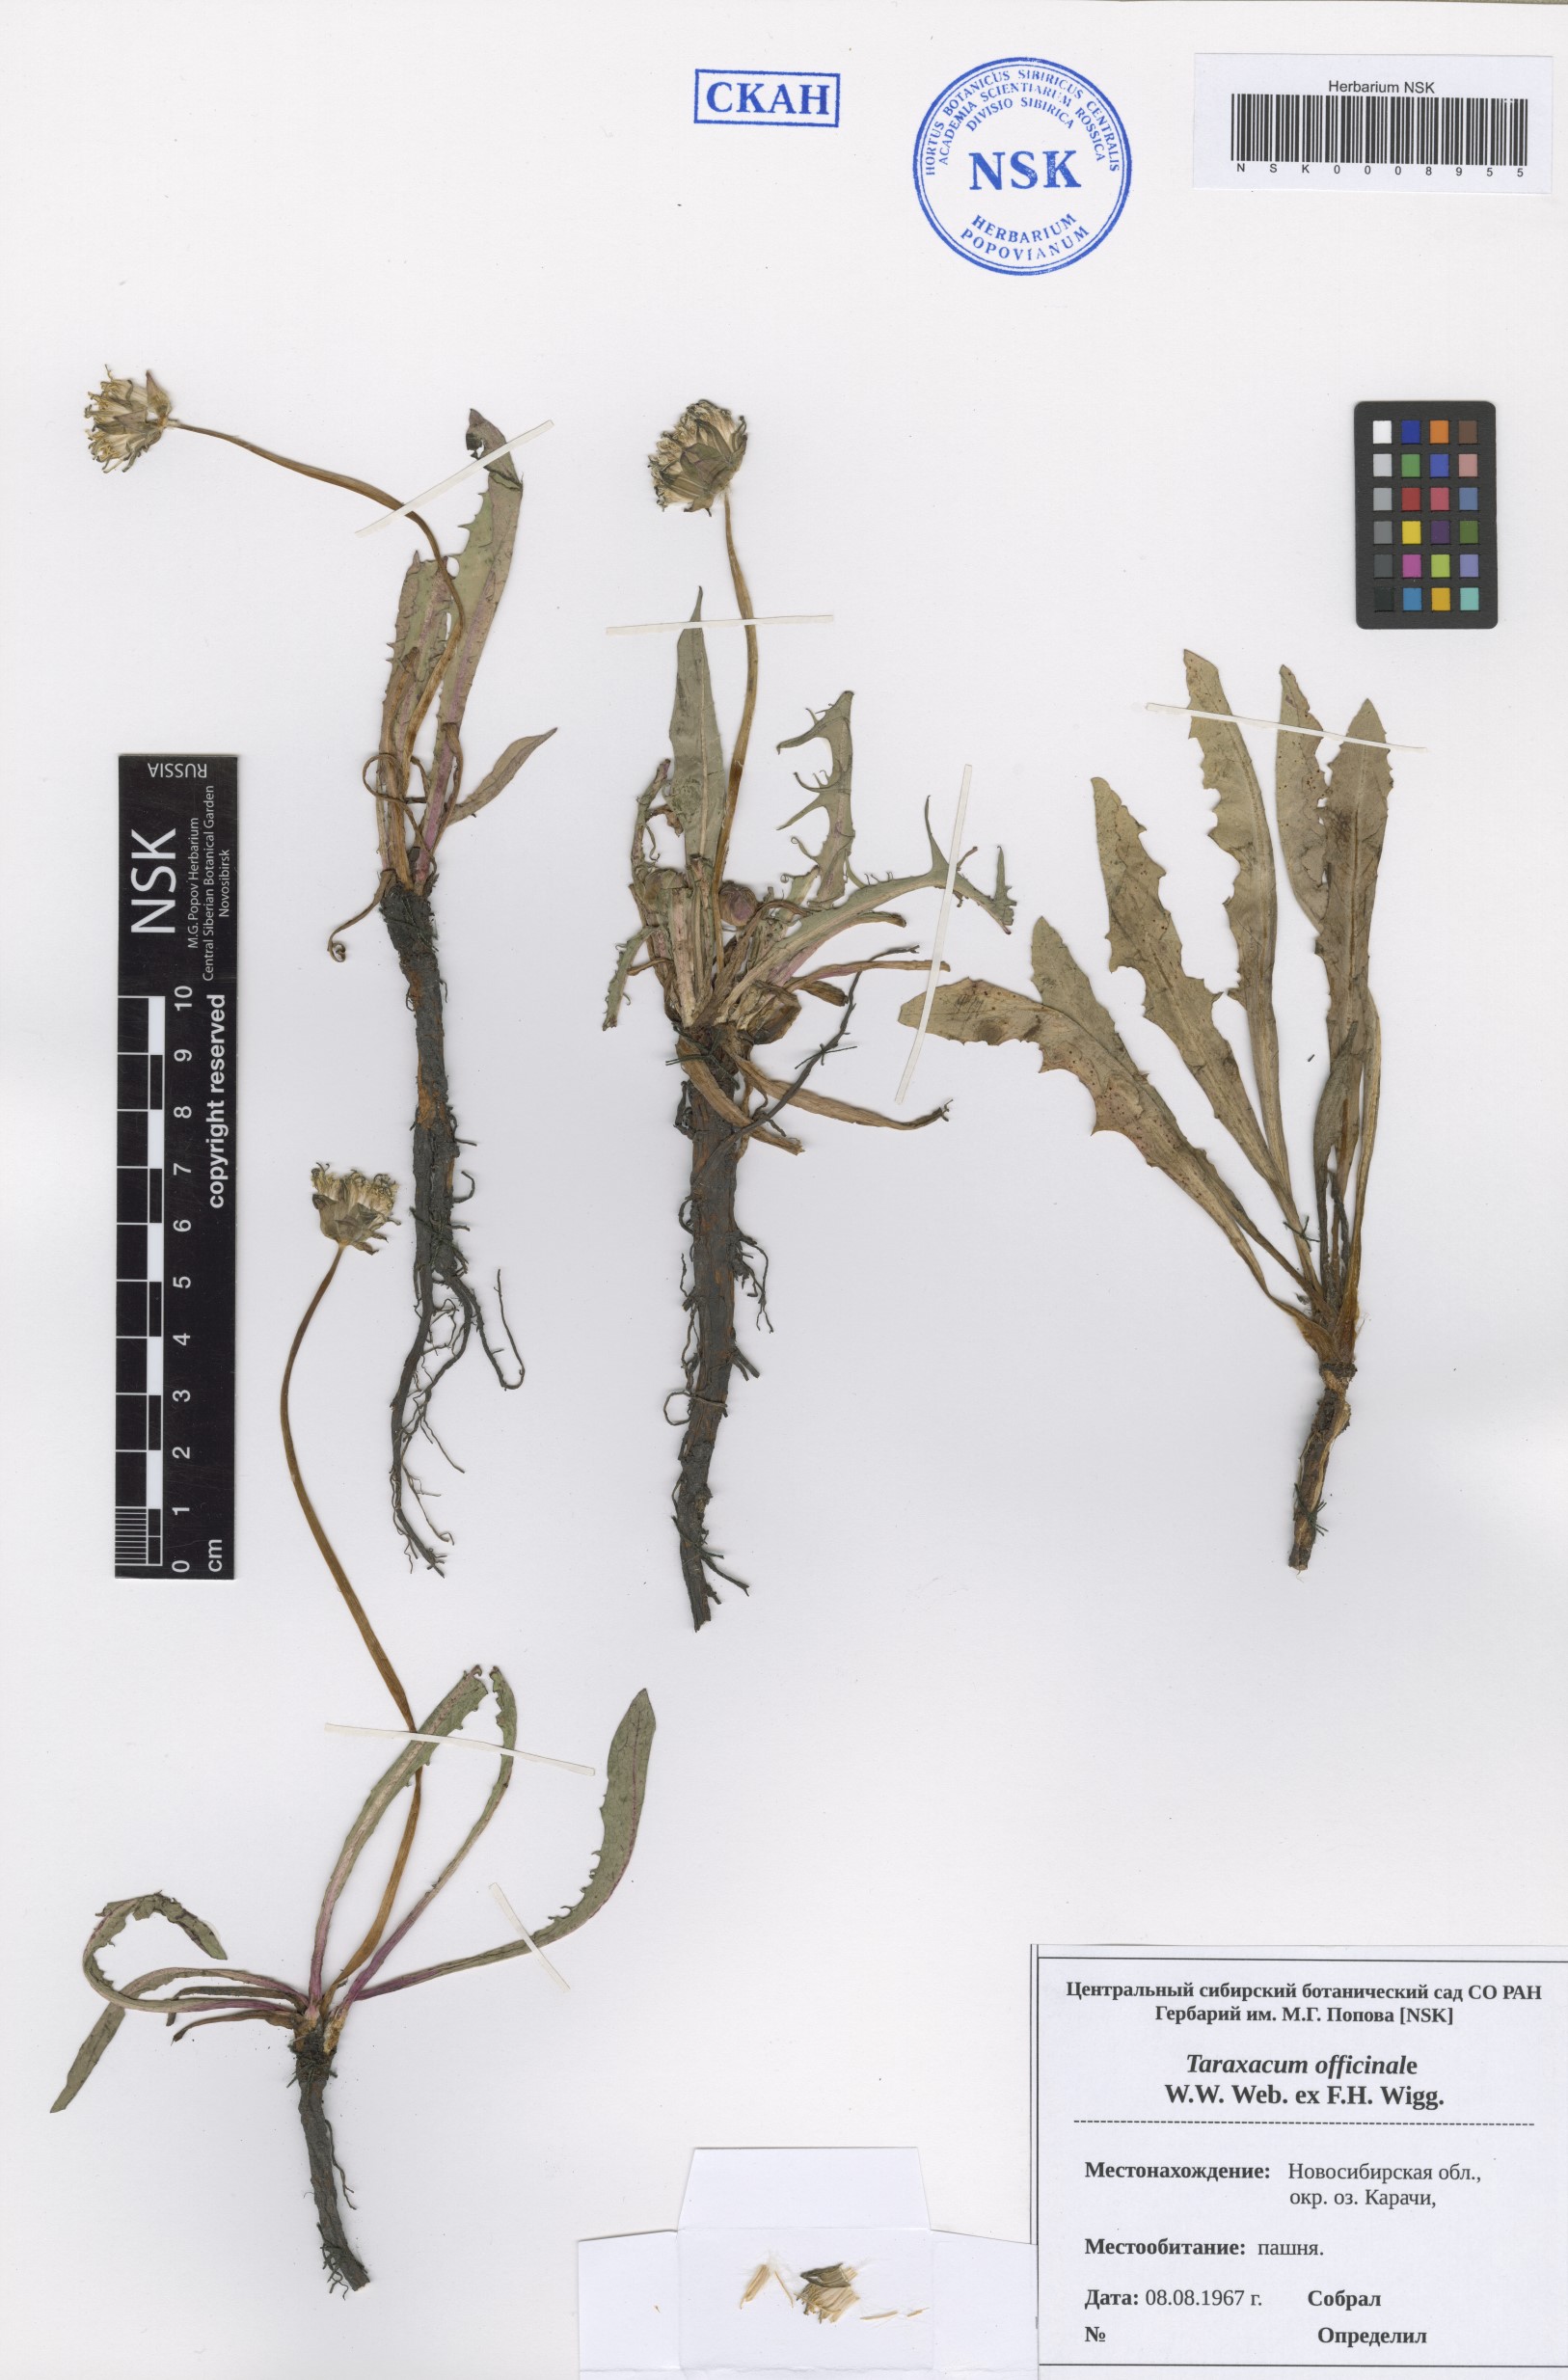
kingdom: Plantae
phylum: Tracheophyta
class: Magnoliopsida
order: Asterales
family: Asteraceae
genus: Taraxacum
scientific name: Taraxacum officinale
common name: Common dandelion
